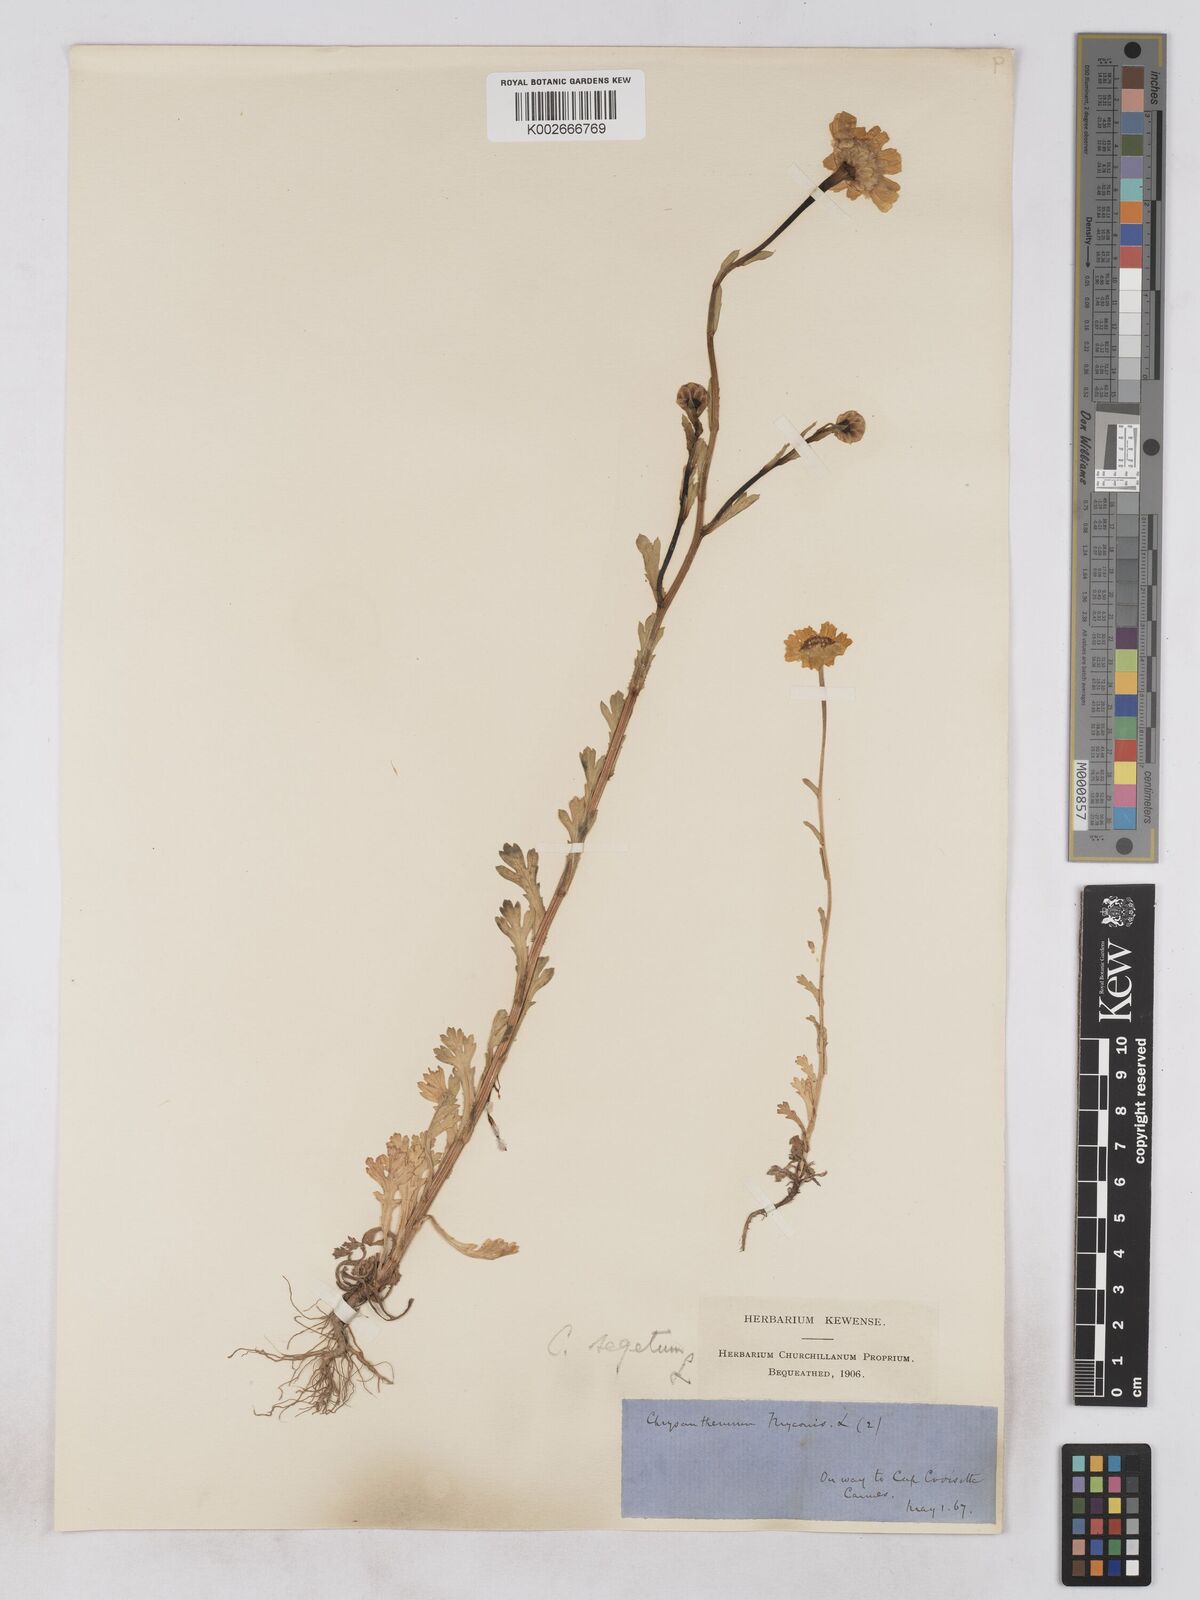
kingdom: Plantae
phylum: Tracheophyta
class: Magnoliopsida
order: Asterales
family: Asteraceae
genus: Glebionis
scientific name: Glebionis segetum
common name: Corndaisy
